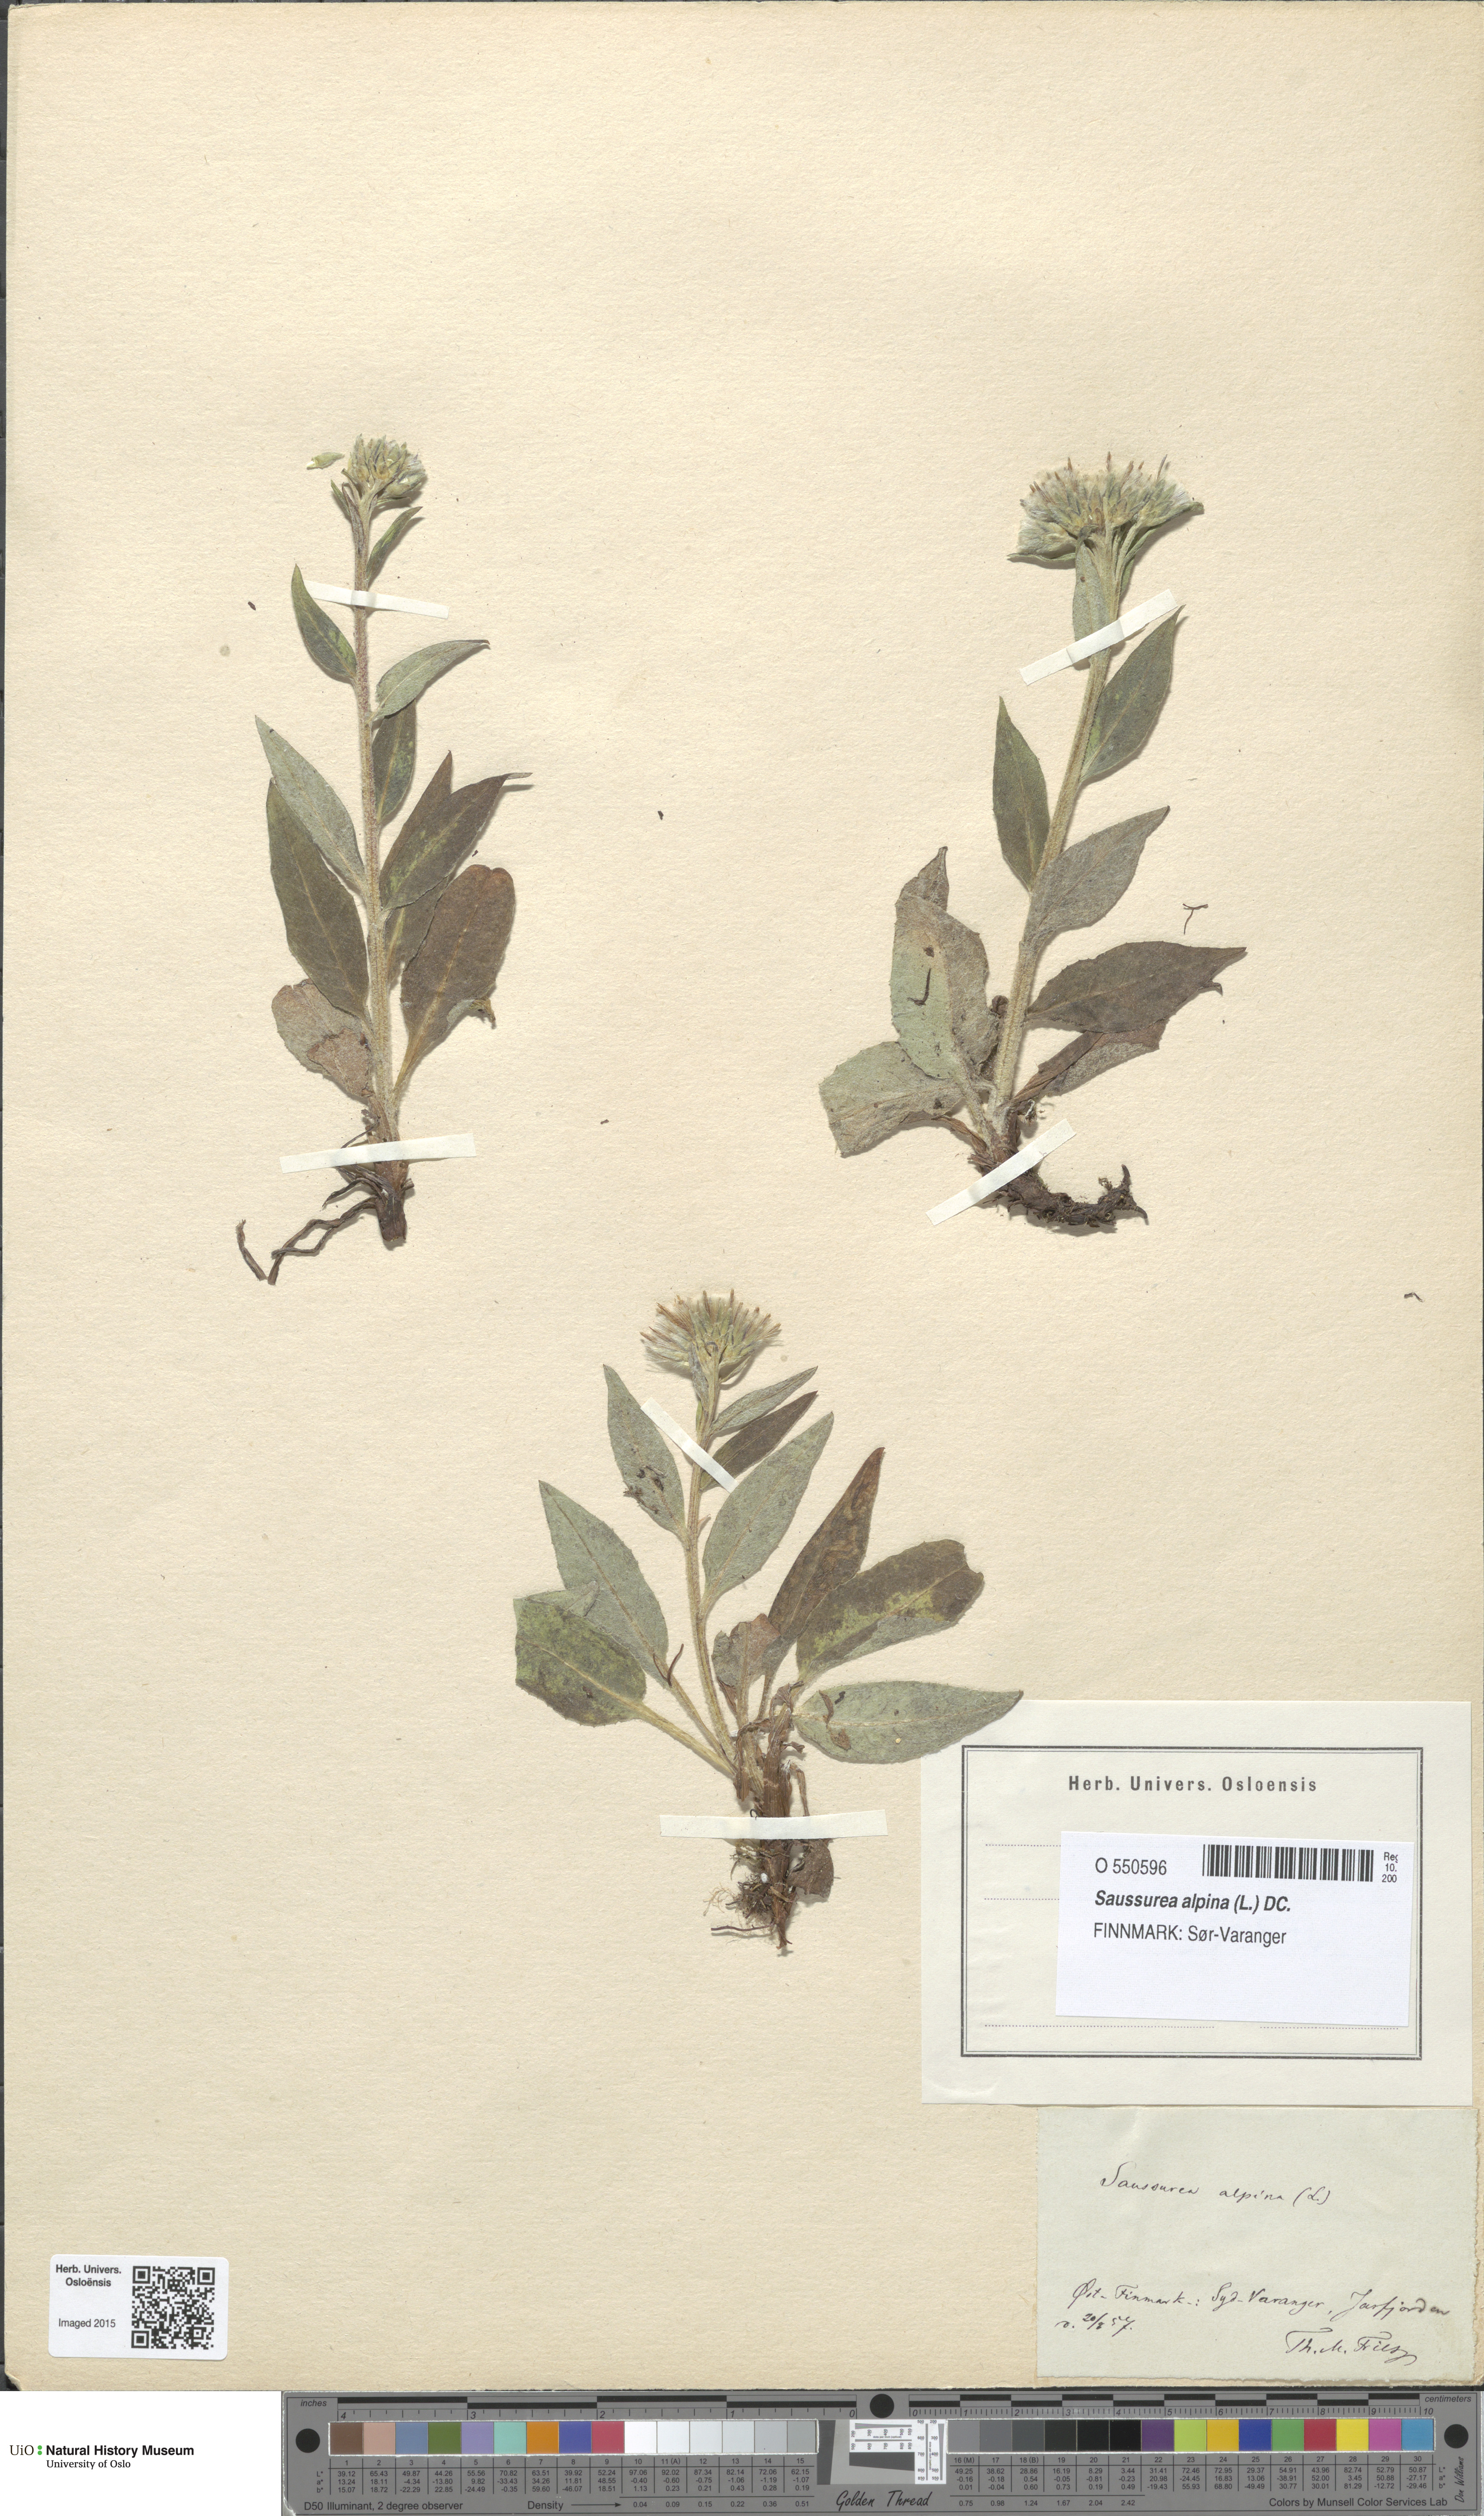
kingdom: Plantae
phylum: Tracheophyta
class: Magnoliopsida
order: Asterales
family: Asteraceae
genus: Saussurea
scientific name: Saussurea alpina
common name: Alpine saw-wort
